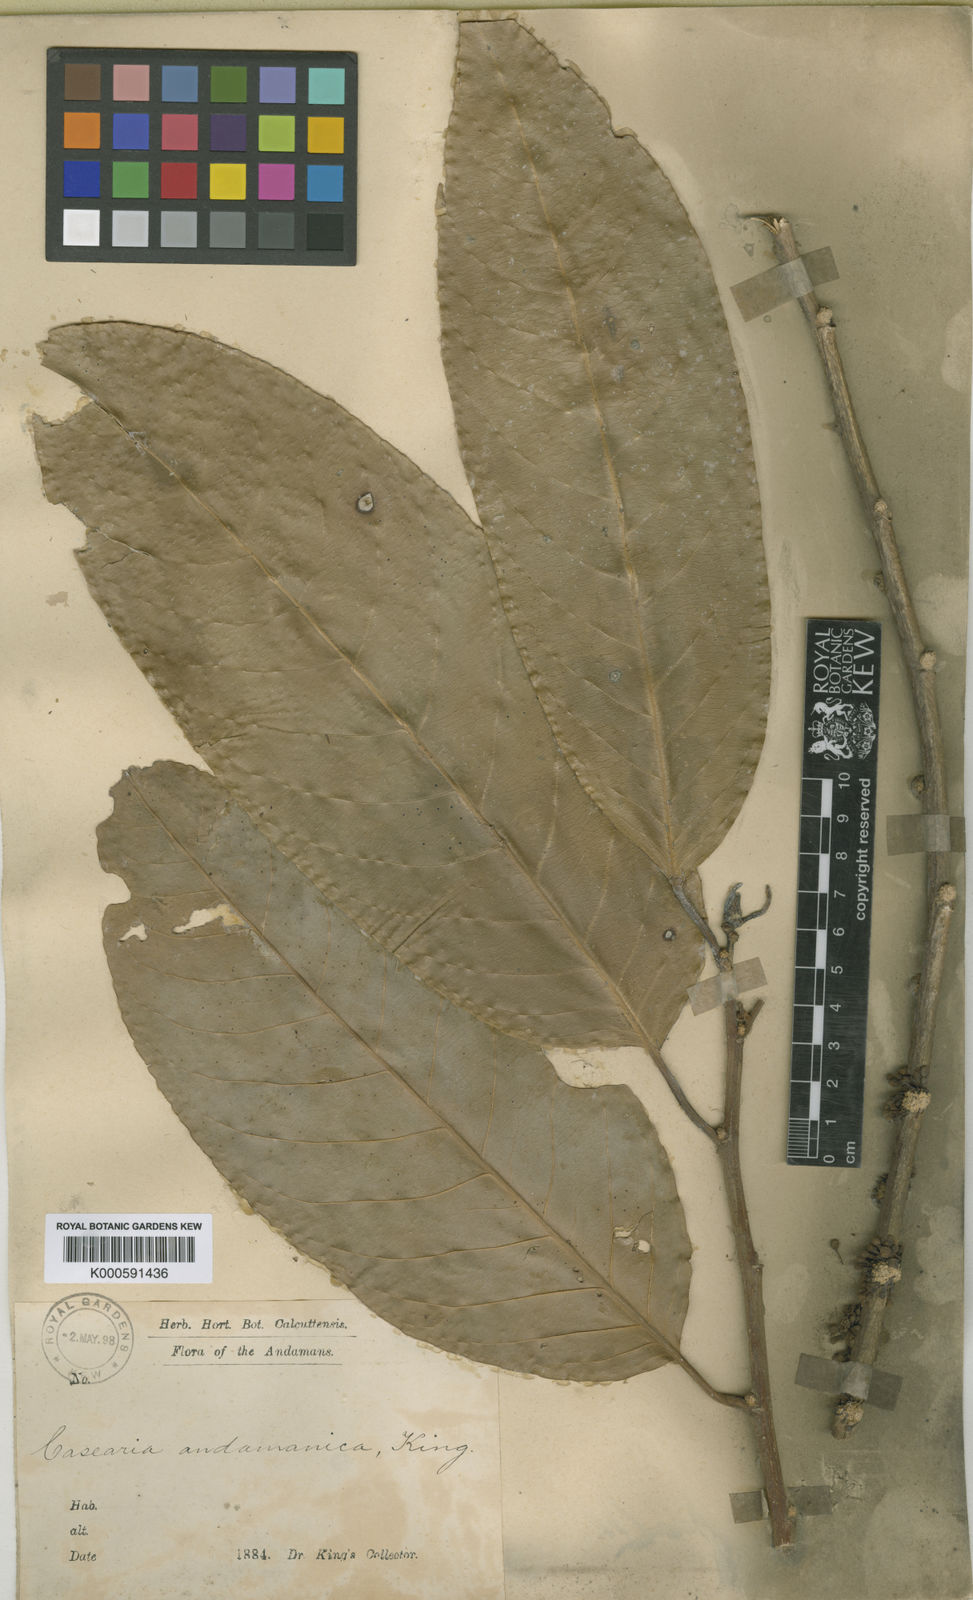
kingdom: Plantae
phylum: Tracheophyta
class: Magnoliopsida
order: Malpighiales
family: Salicaceae
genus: Casearia
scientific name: Casearia andamanica
